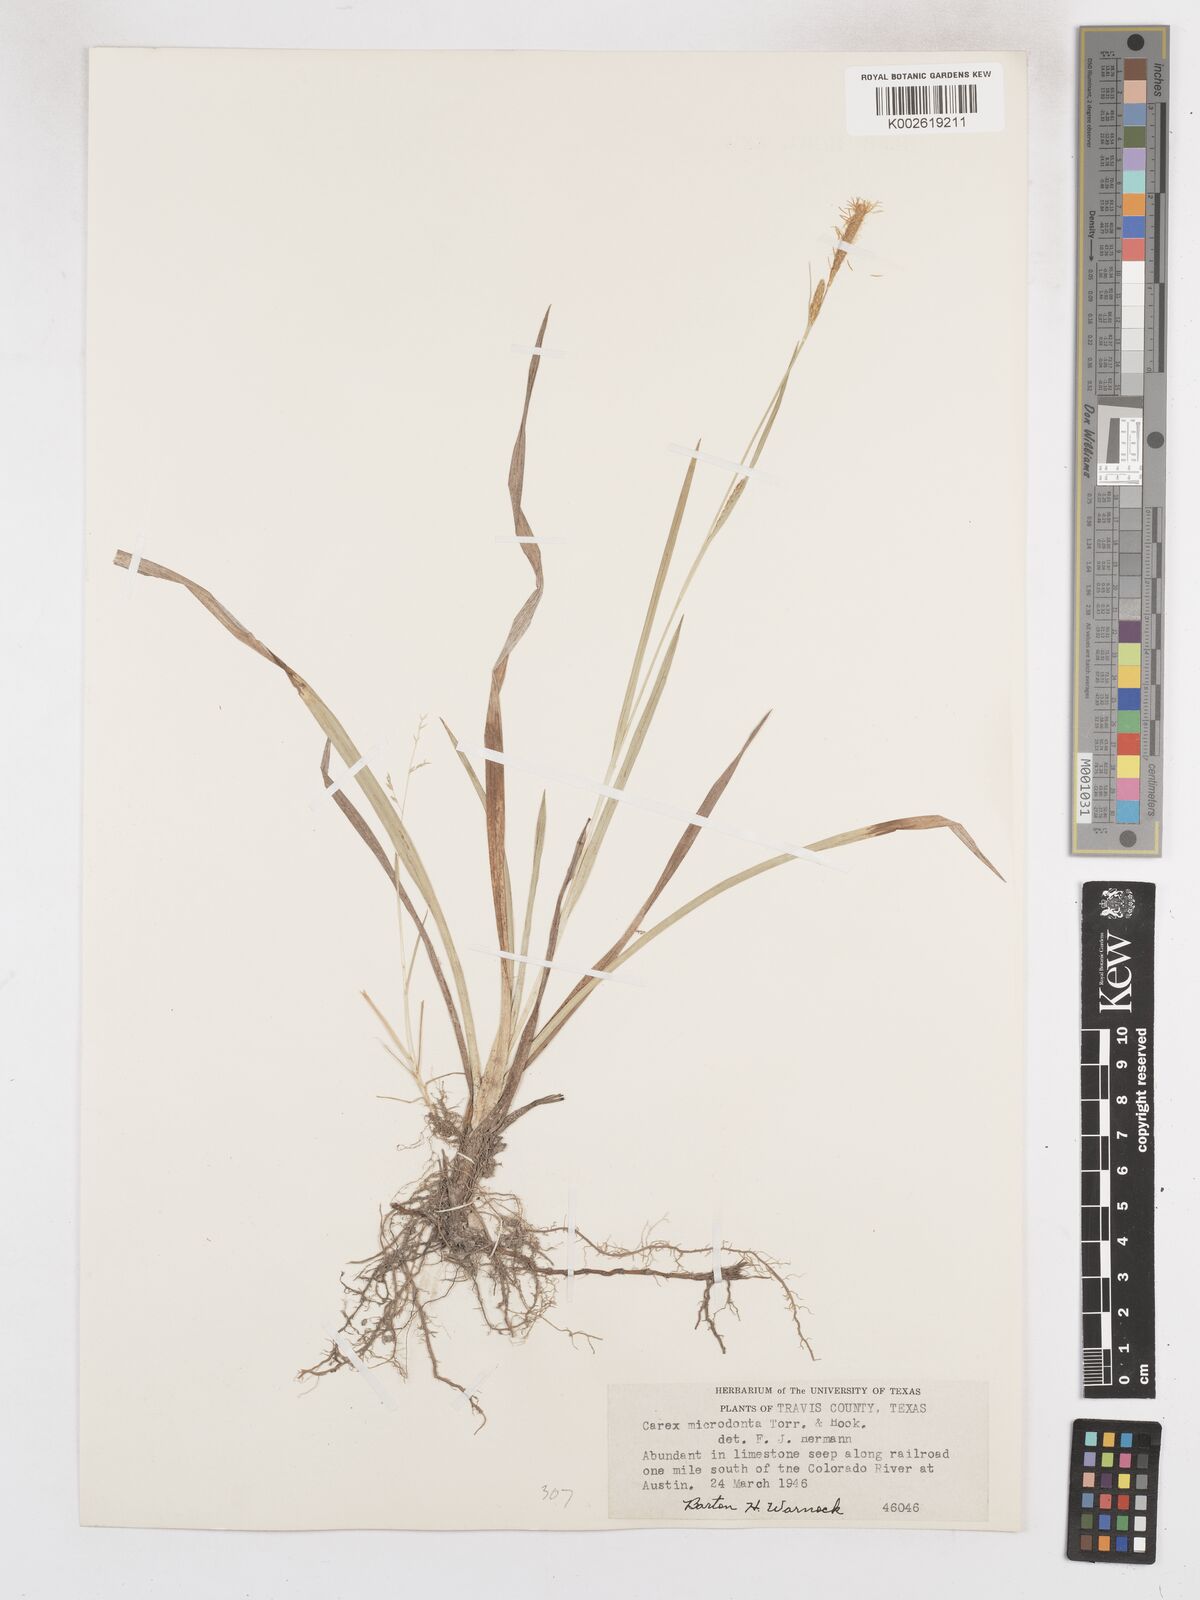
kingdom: Plantae
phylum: Tracheophyta
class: Liliopsida
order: Poales
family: Cyperaceae
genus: Carex
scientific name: Carex microdonta
